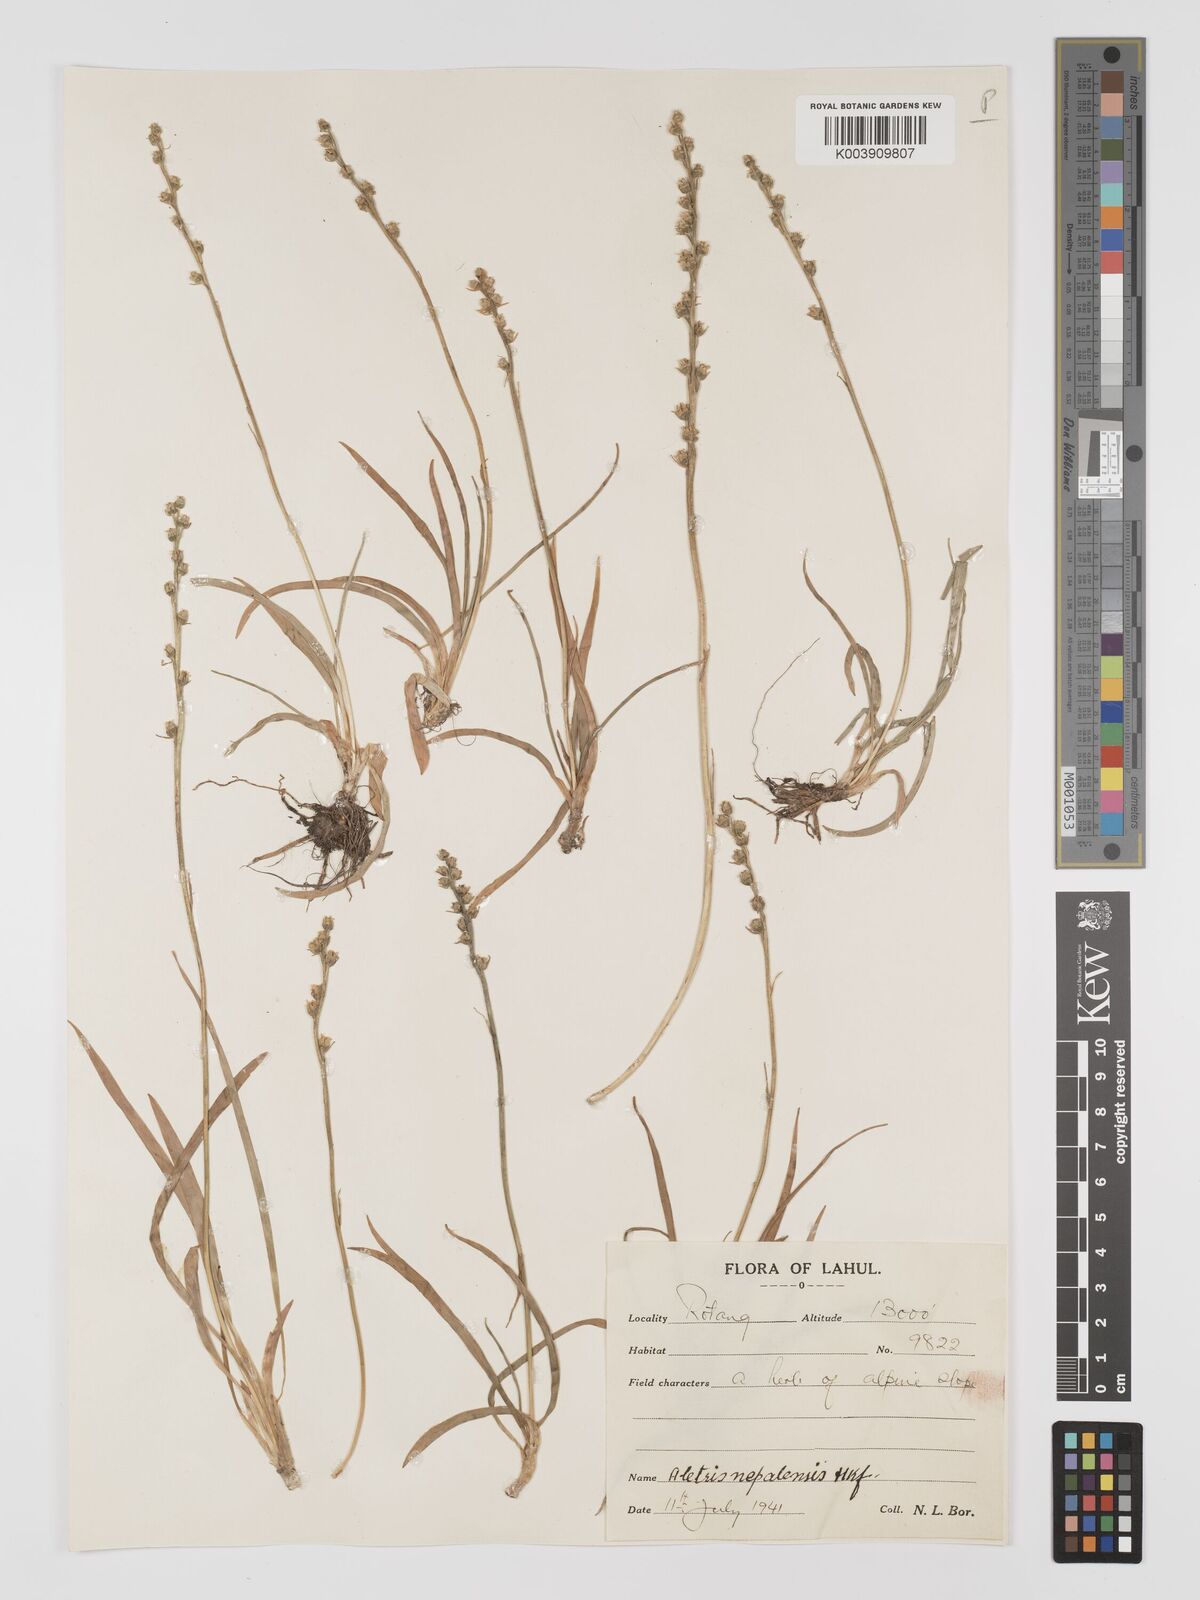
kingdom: Plantae
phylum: Tracheophyta
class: Liliopsida
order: Dioscoreales
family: Nartheciaceae
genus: Aletris
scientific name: Aletris pauciflora
